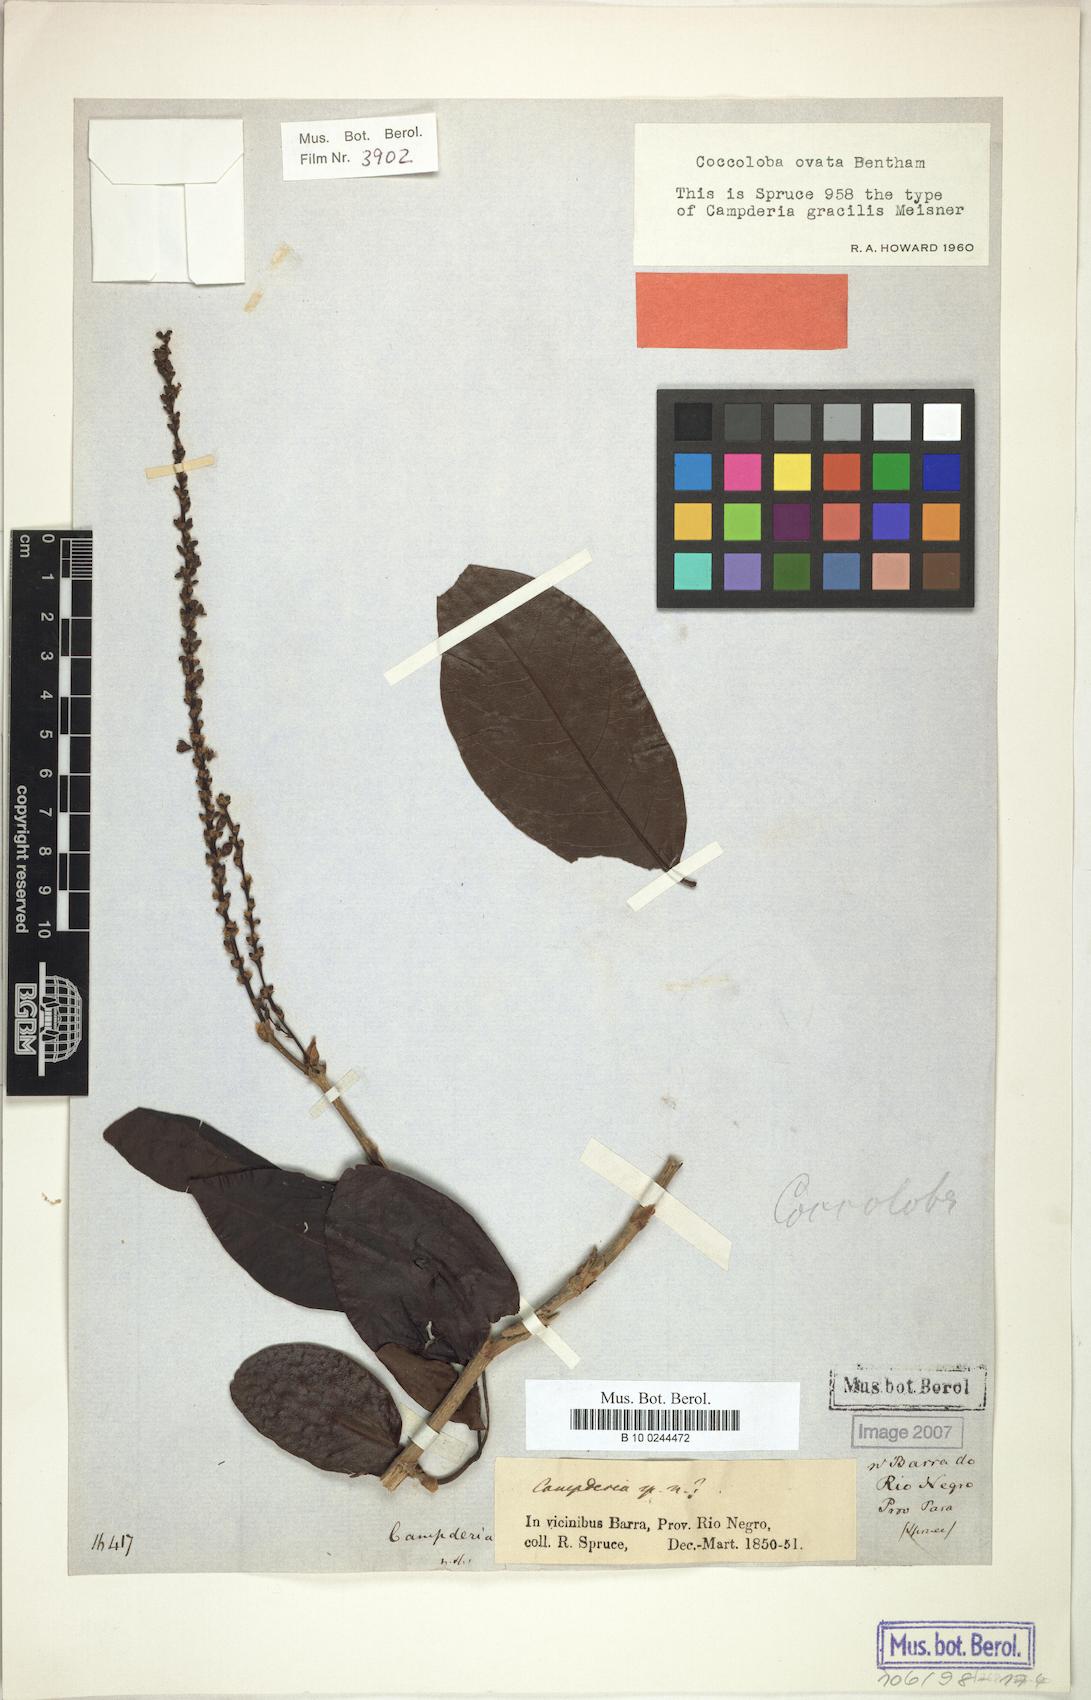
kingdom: Plantae
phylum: Tracheophyta
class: Magnoliopsida
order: Caryophyllales
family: Polygonaceae
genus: Coccoloba
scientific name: Coccoloba ovata
